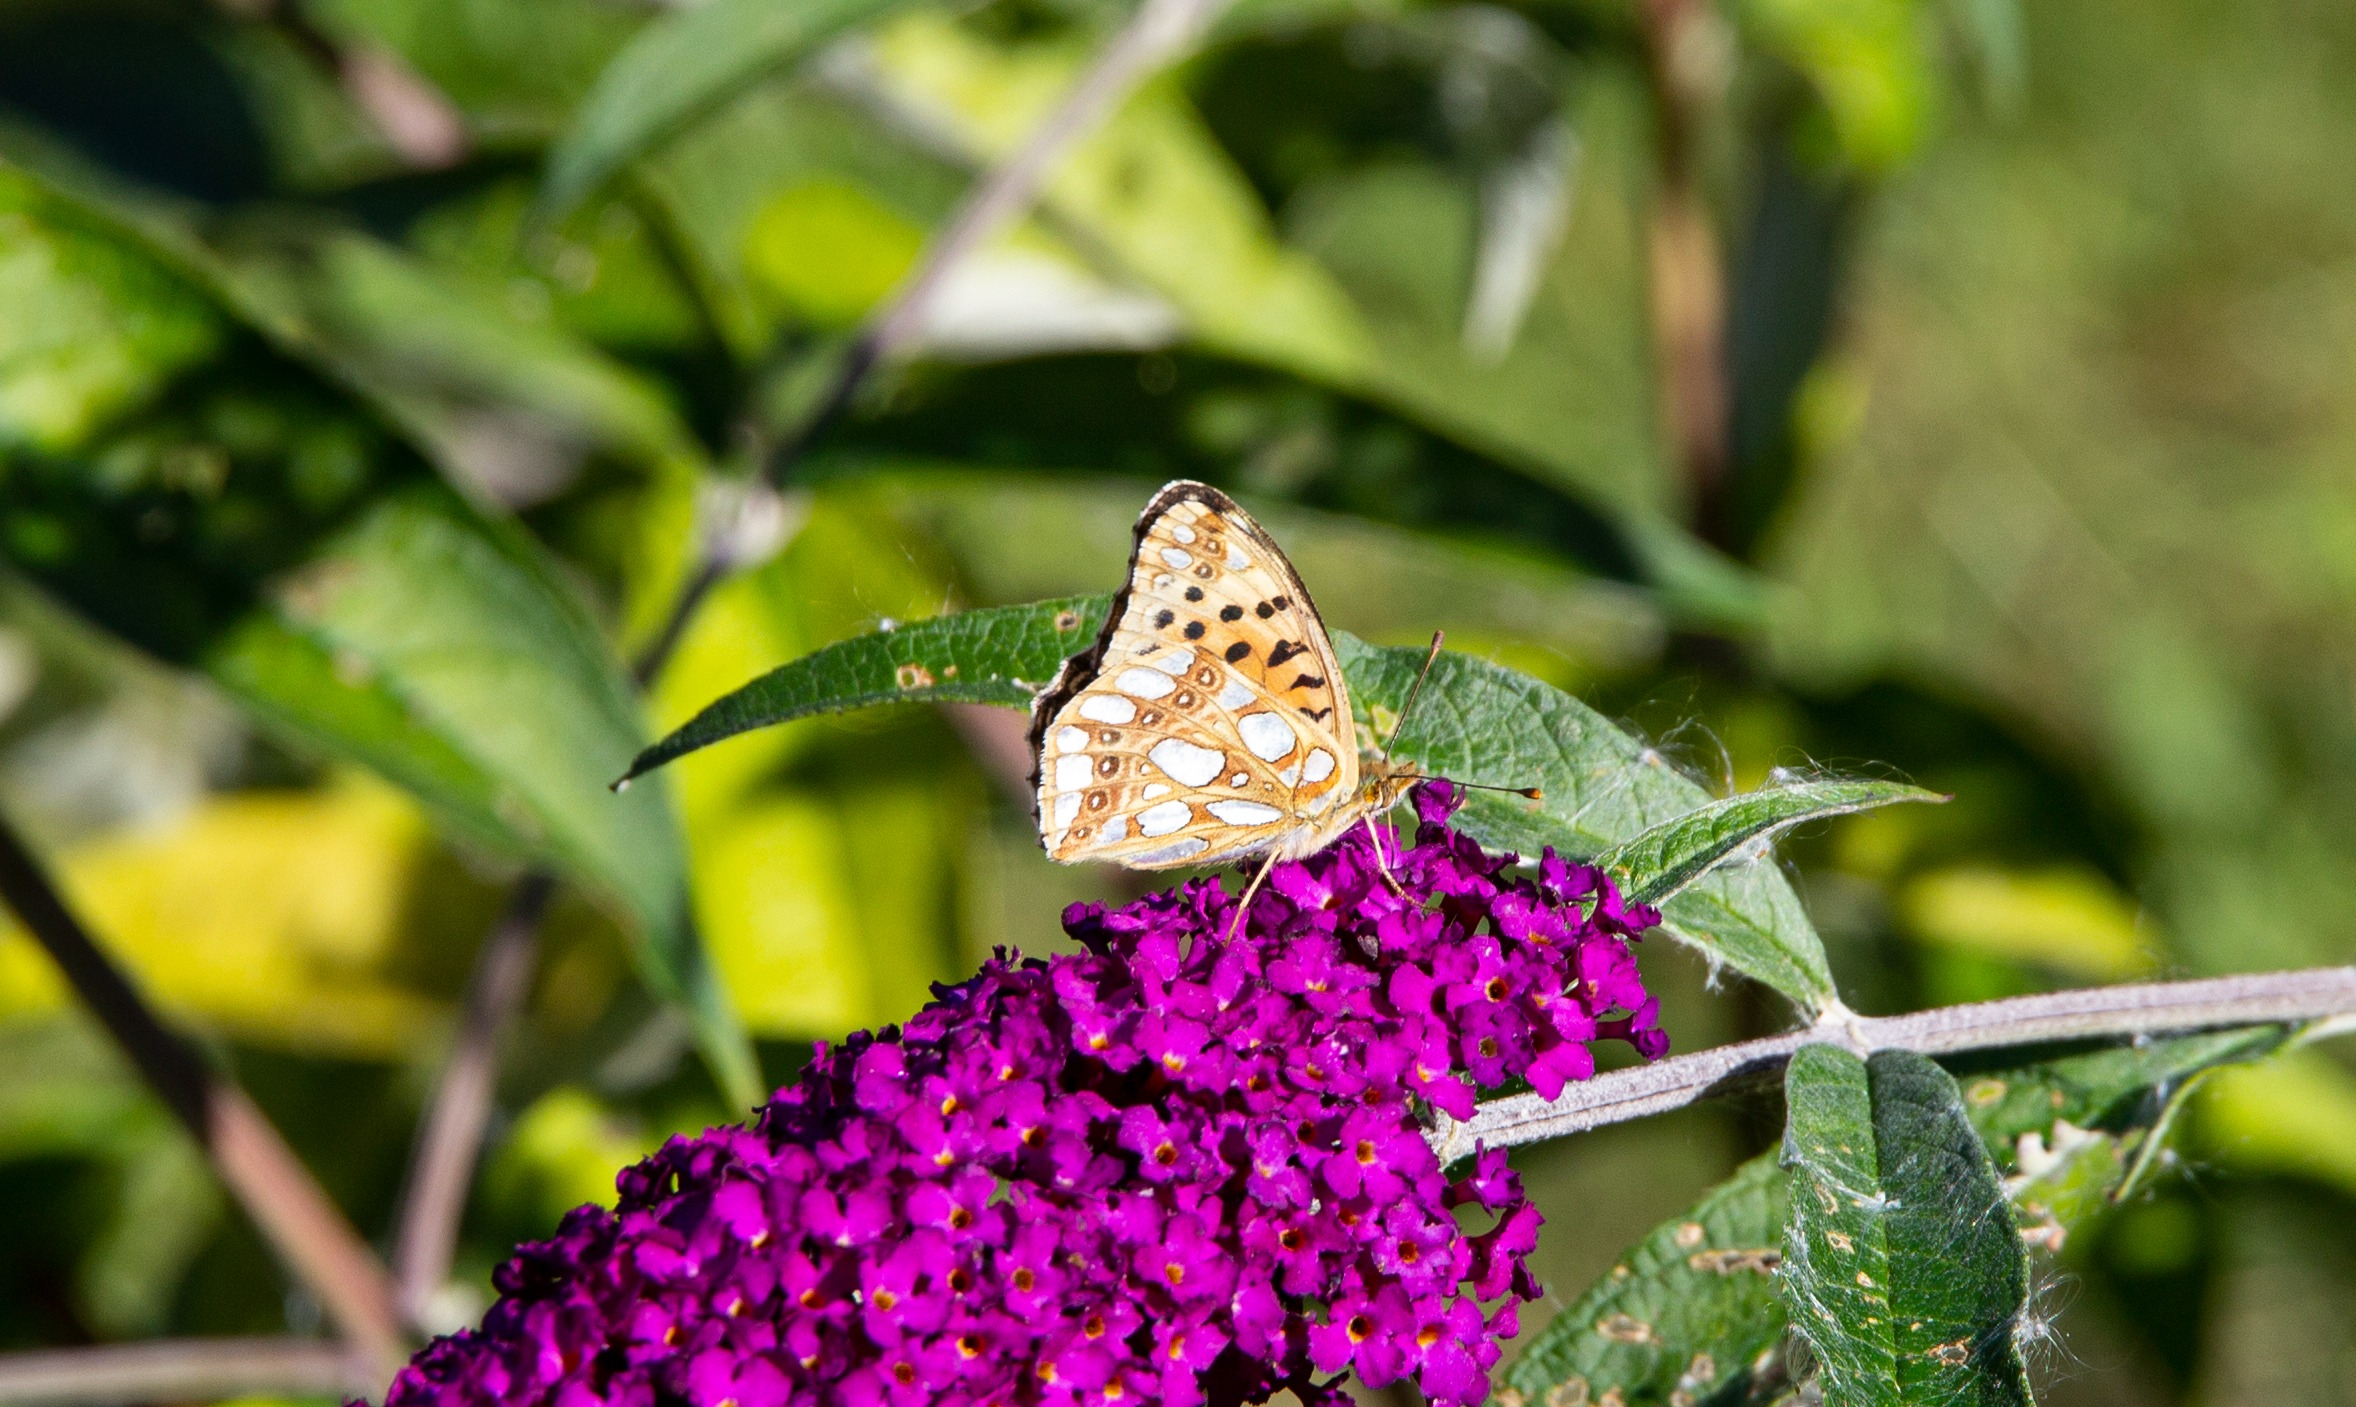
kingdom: Animalia
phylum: Arthropoda
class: Insecta
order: Lepidoptera
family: Nymphalidae
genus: Issoria
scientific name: Issoria lathonia
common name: Storplettet perlemorsommerfugl
